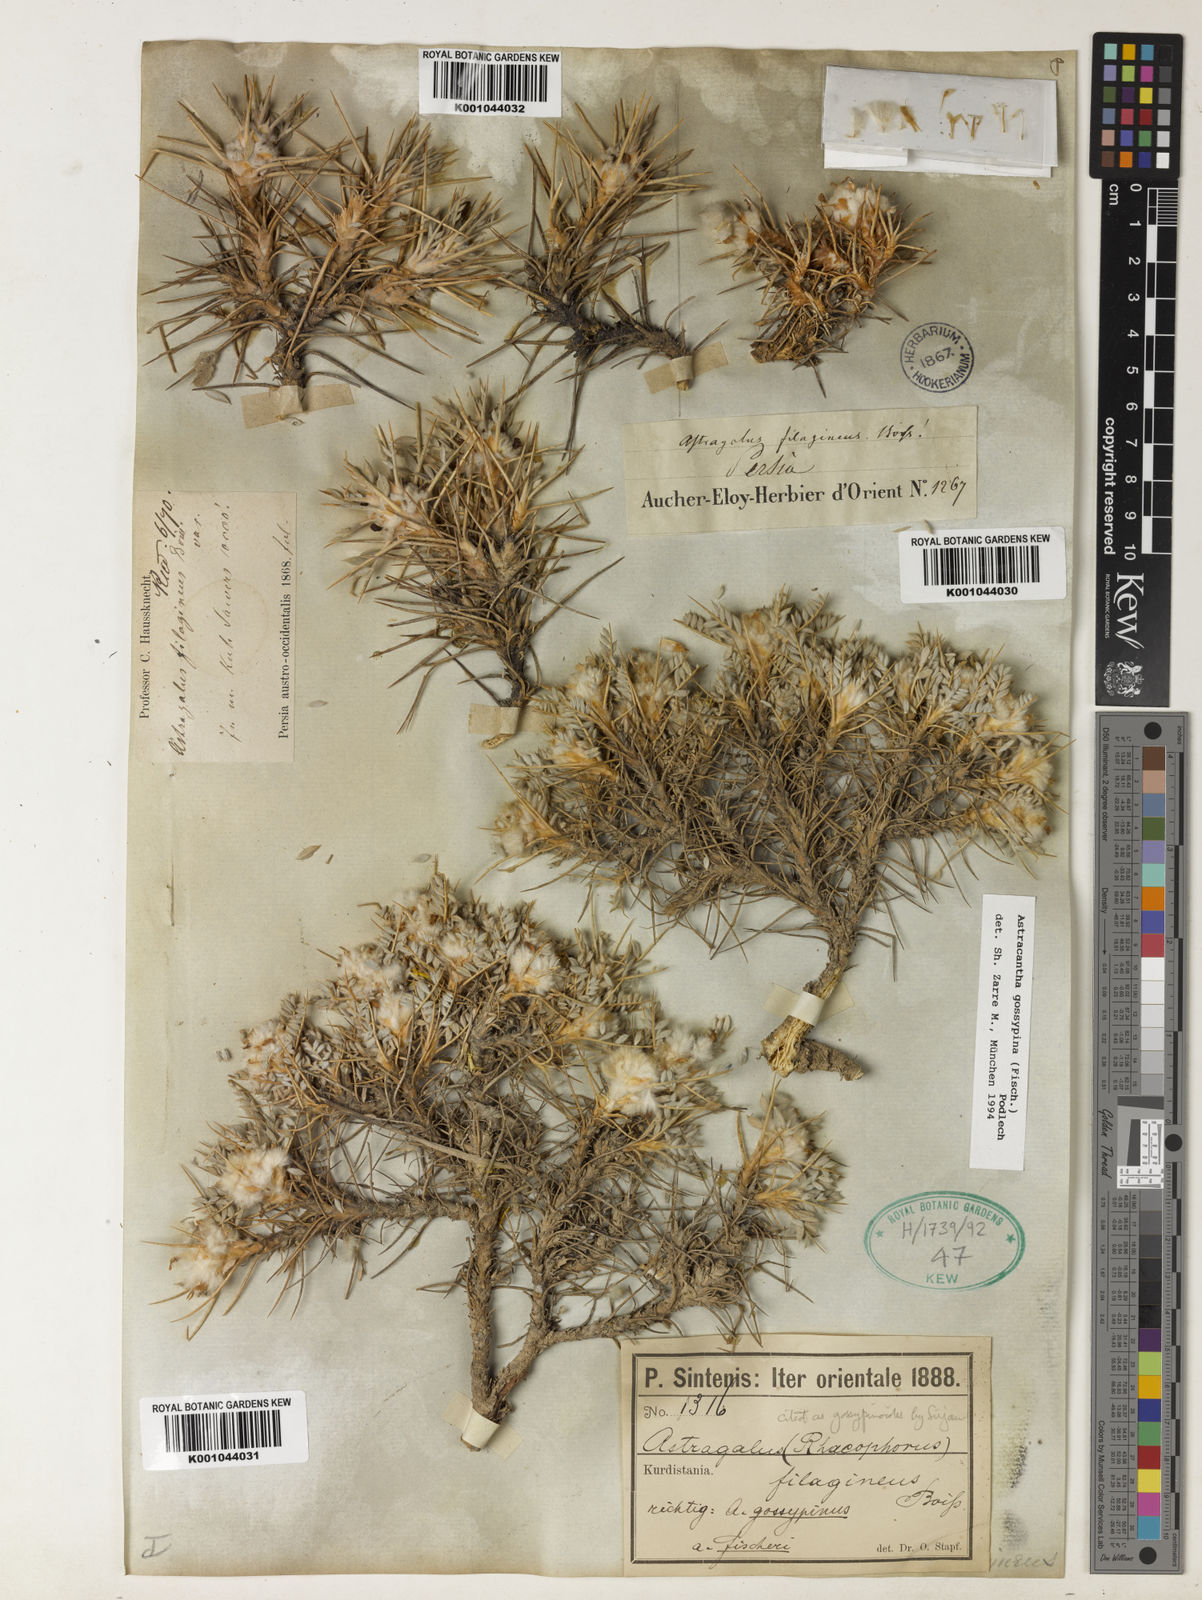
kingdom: Plantae
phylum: Tracheophyta
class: Magnoliopsida
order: Fabales
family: Fabaceae
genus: Astragalus
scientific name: Astragalus gossypinus
